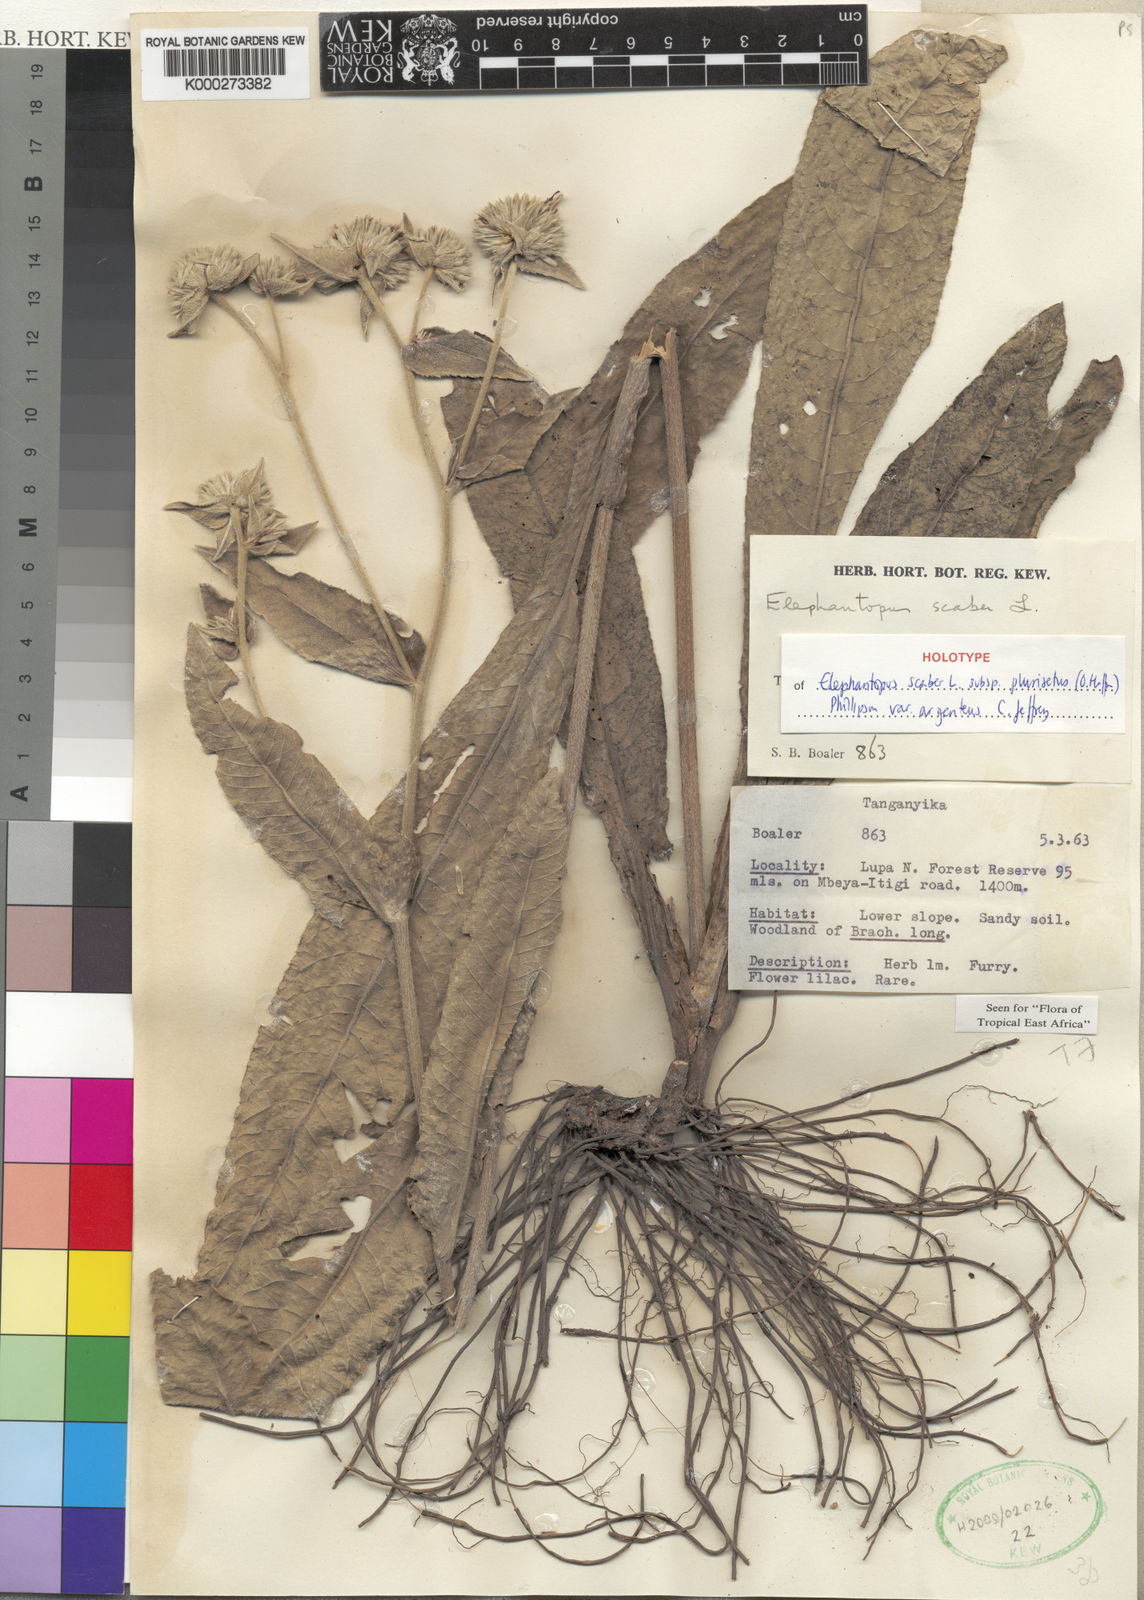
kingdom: Plantae
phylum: Tracheophyta
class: Magnoliopsida
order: Asterales
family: Asteraceae
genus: Elephantopus
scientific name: Elephantopus scaber
